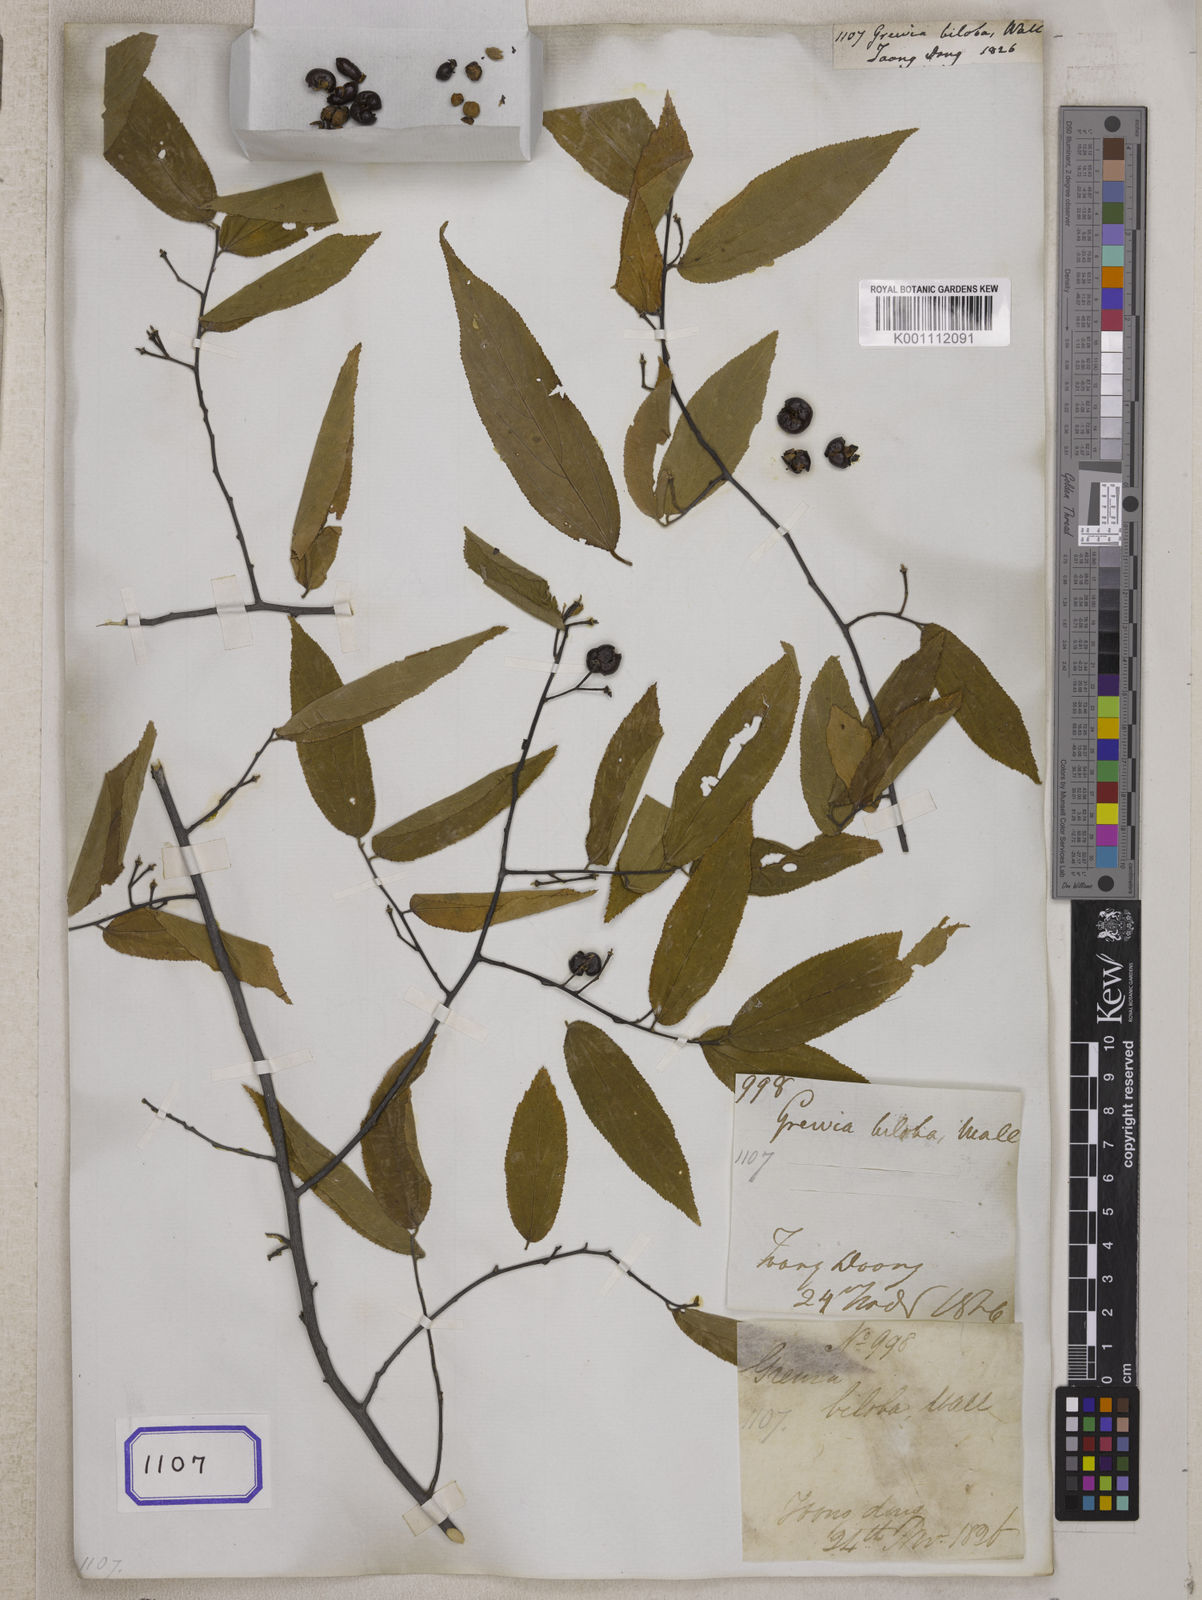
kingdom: Plantae
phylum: Tracheophyta
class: Magnoliopsida
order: Malvales
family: Malvaceae
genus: Grewia
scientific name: Grewia
